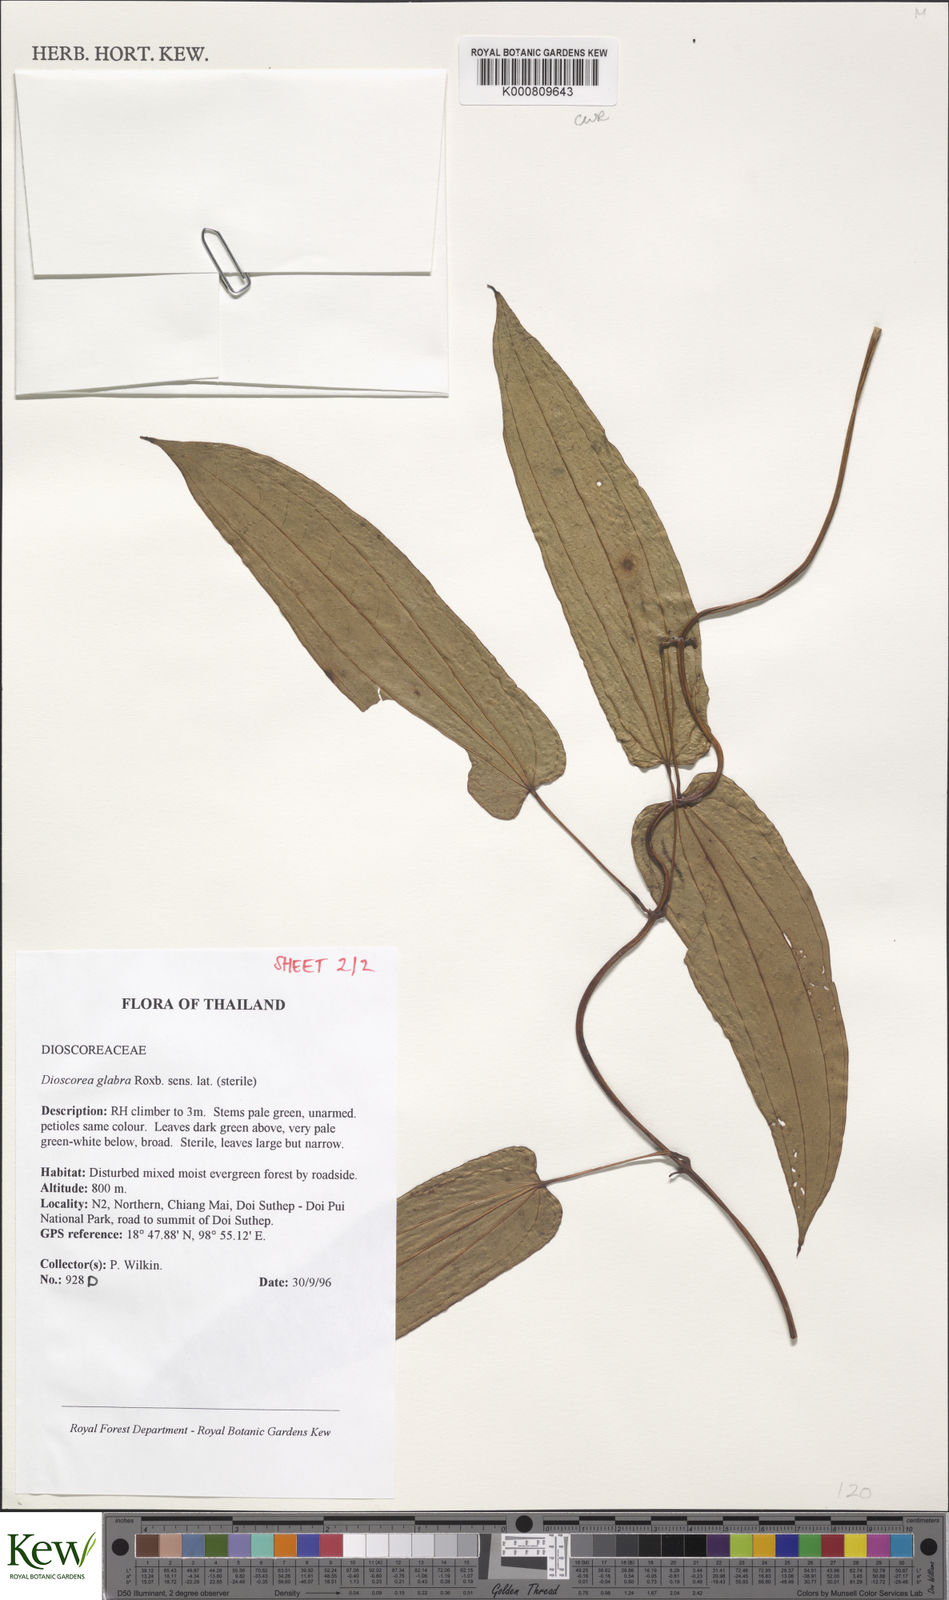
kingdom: Plantae
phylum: Tracheophyta
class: Liliopsida
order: Dioscoreales
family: Dioscoreaceae
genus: Dioscorea
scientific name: Dioscorea glabra
